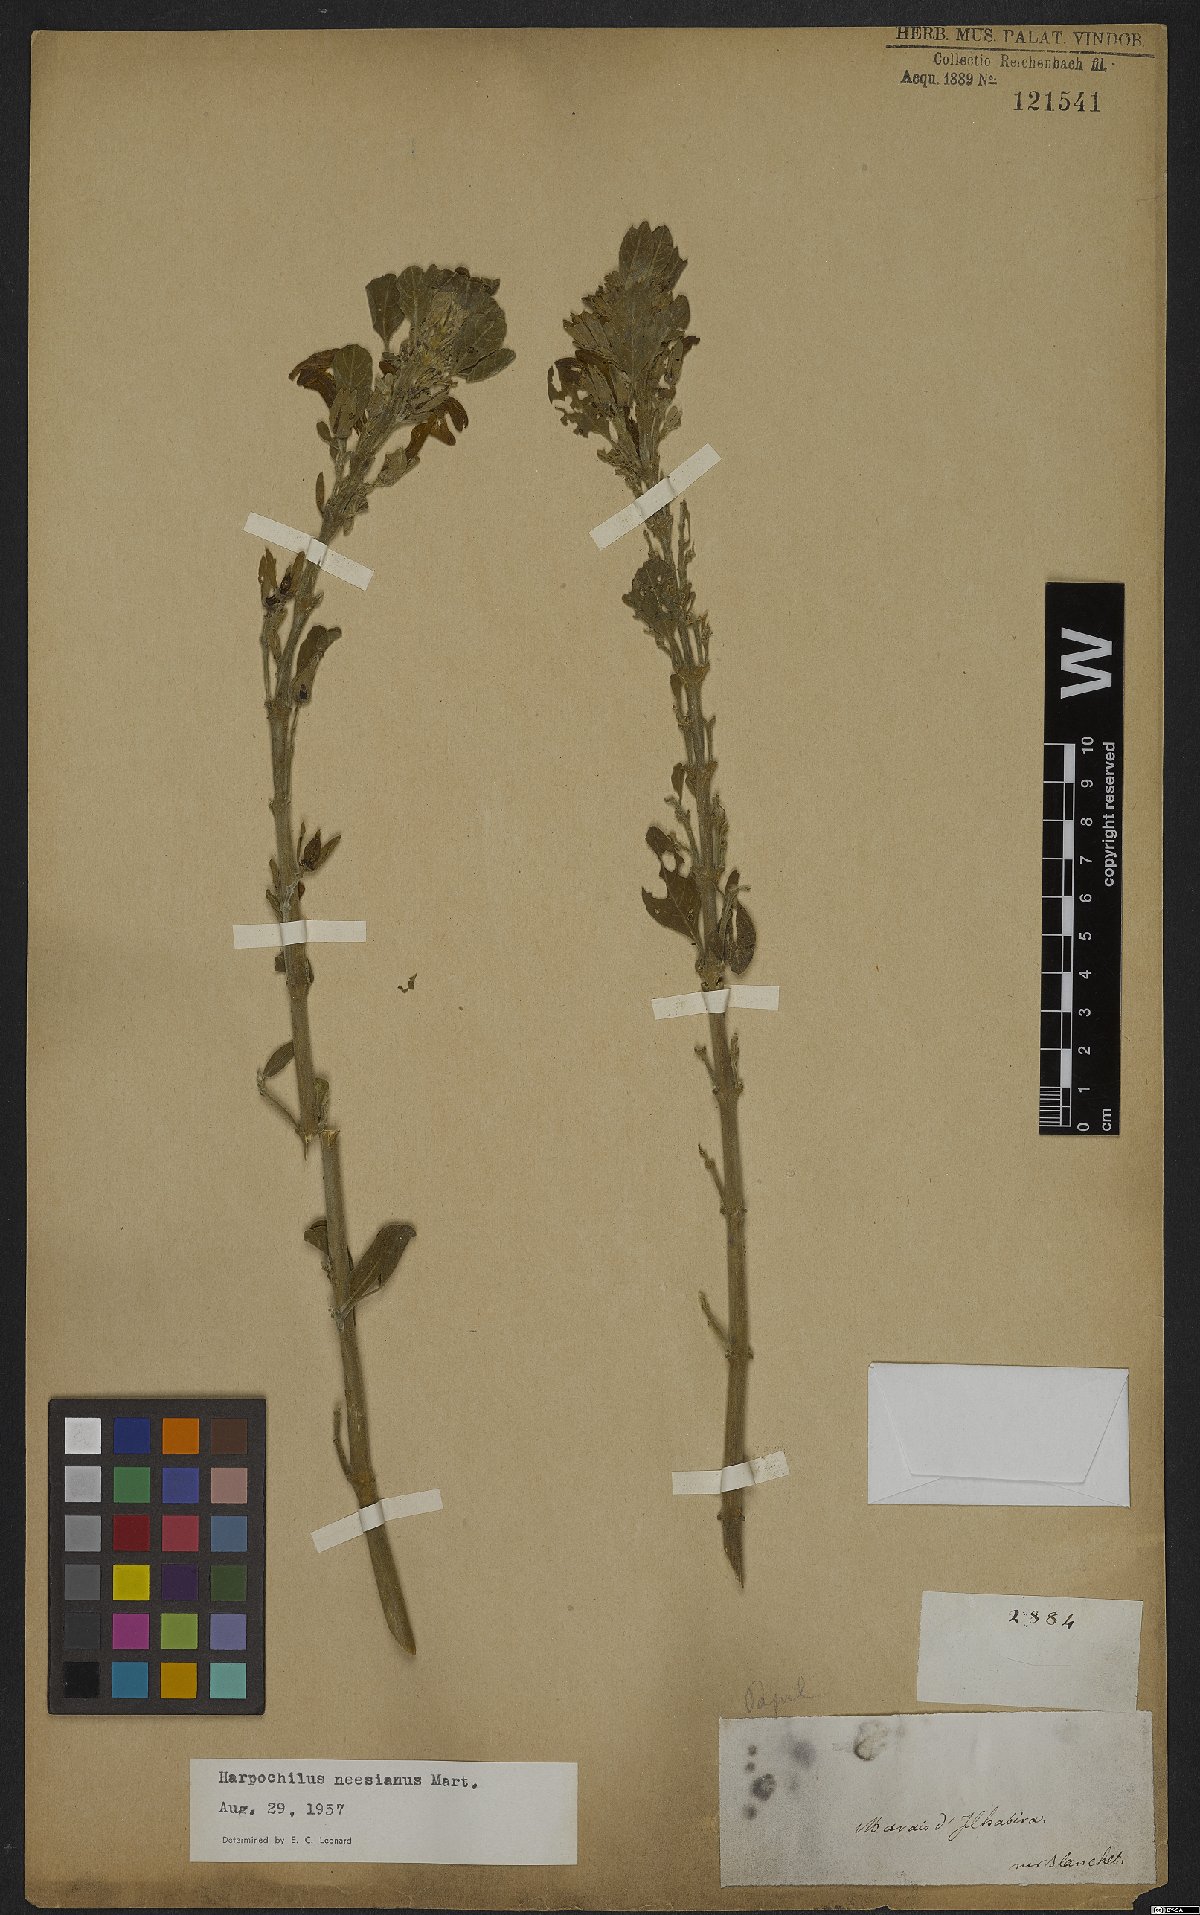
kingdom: Plantae
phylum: Tracheophyta
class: Magnoliopsida
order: Lamiales
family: Acanthaceae
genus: Harpochilus
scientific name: Harpochilus neesianus
